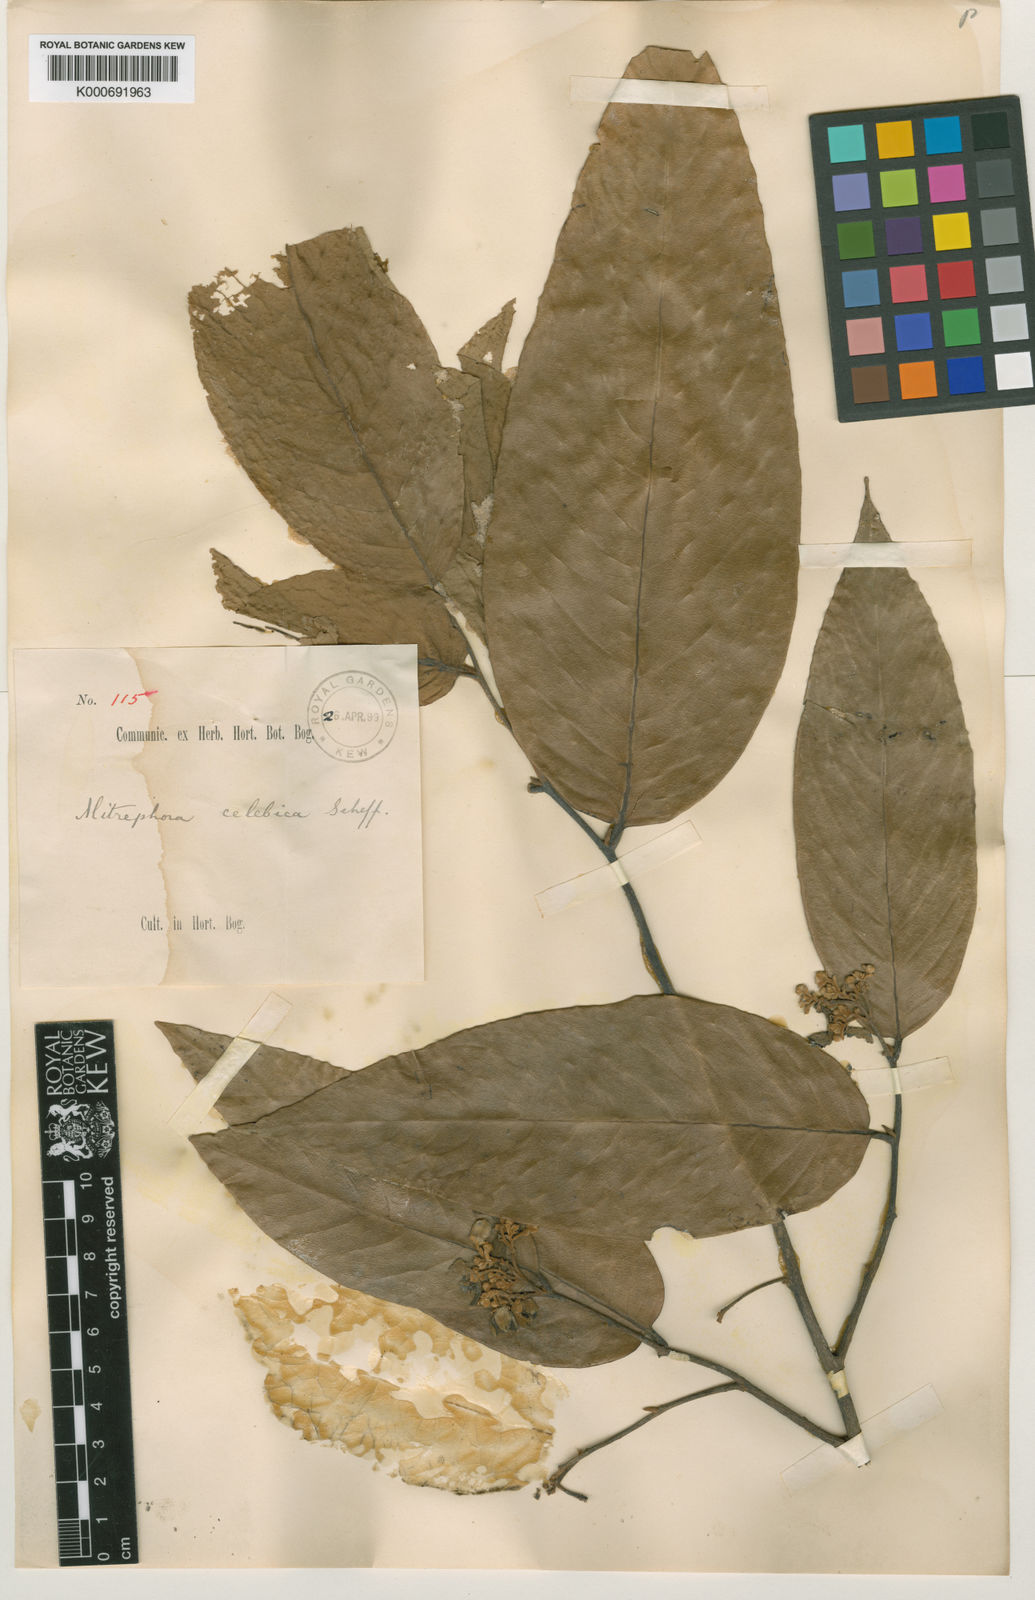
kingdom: Plantae
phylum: Tracheophyta
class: Magnoliopsida
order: Magnoliales
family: Annonaceae
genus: Mitrephora
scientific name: Mitrephora celebica
